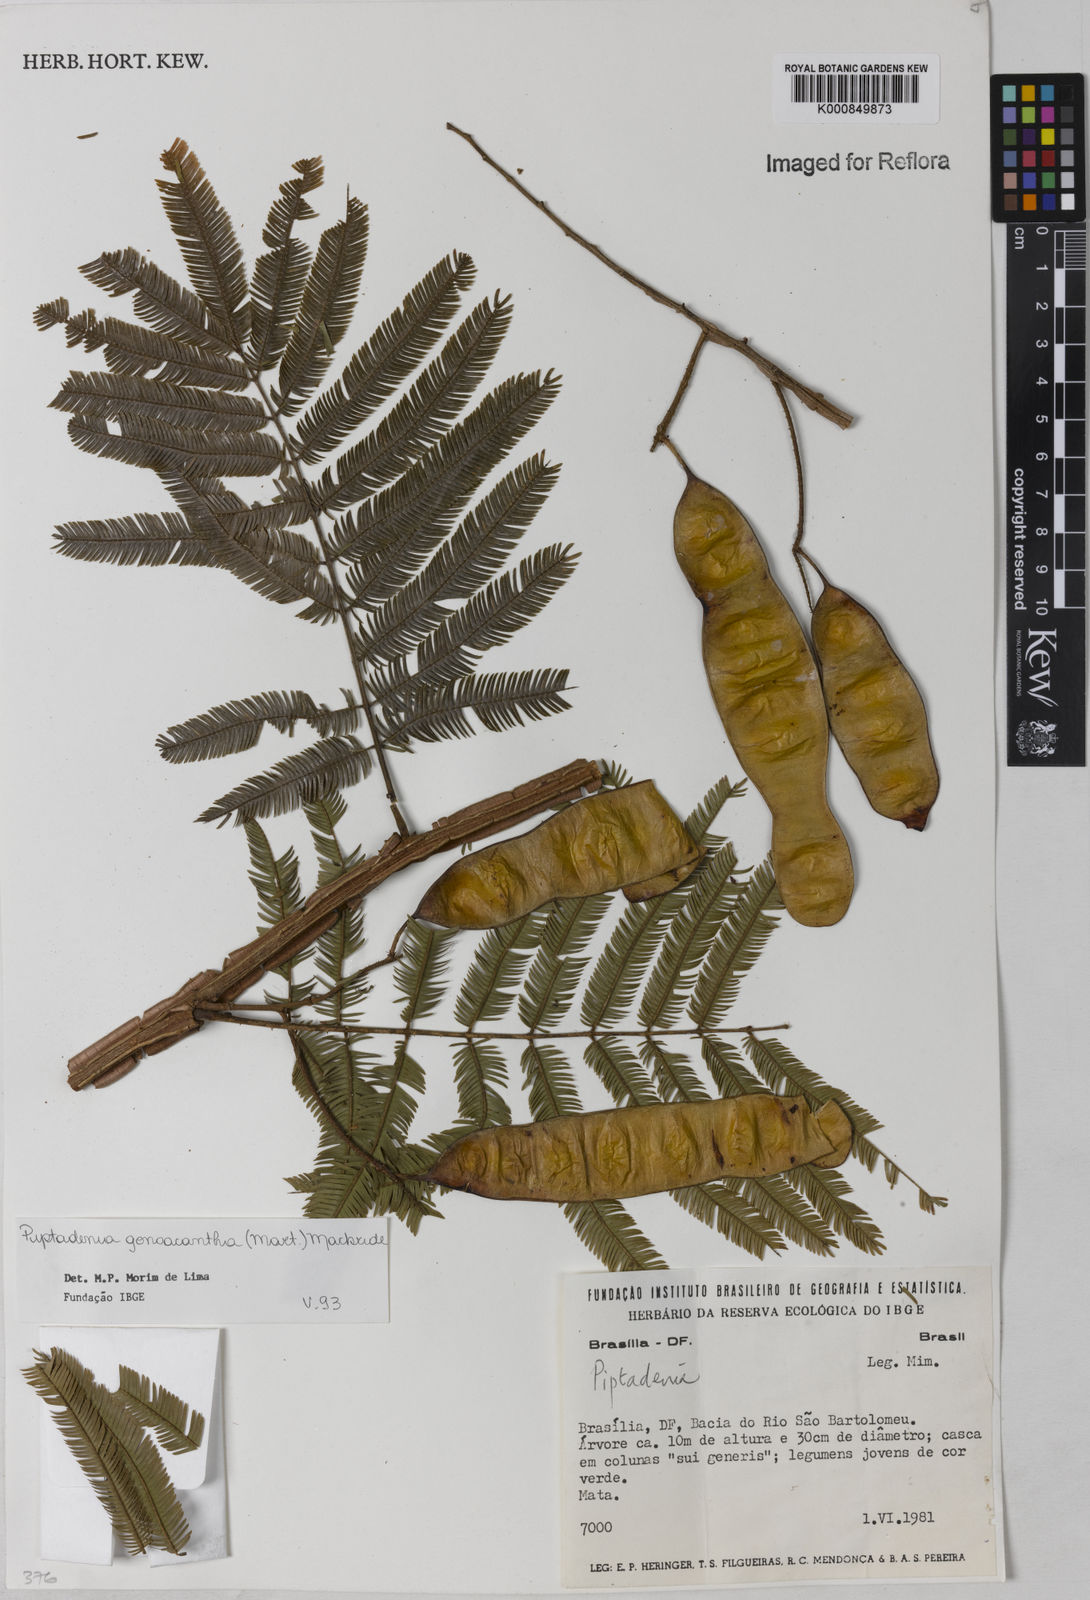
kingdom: Plantae
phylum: Tracheophyta
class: Magnoliopsida
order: Fabales
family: Fabaceae
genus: Piptadenia
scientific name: Piptadenia gonoacantha
